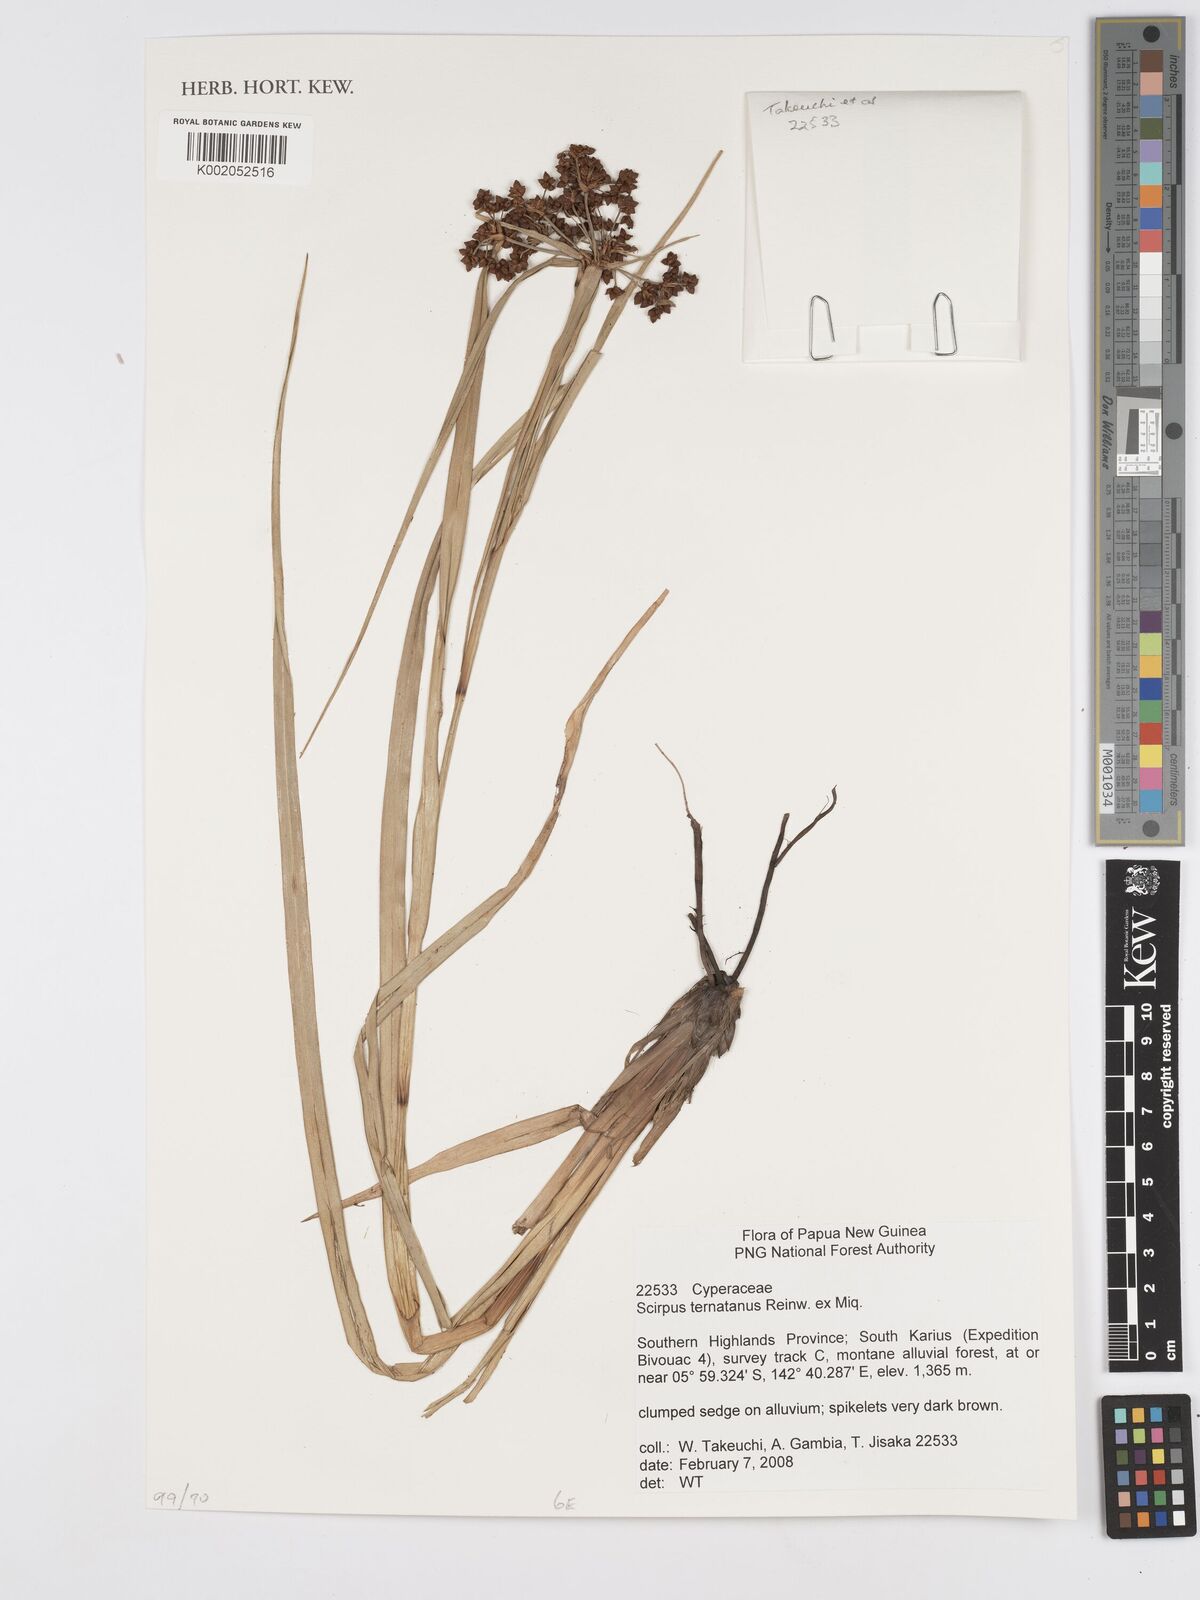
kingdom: Plantae
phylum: Tracheophyta
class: Liliopsida
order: Poales
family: Cyperaceae
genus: Scirpus
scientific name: Scirpus ternatanus
